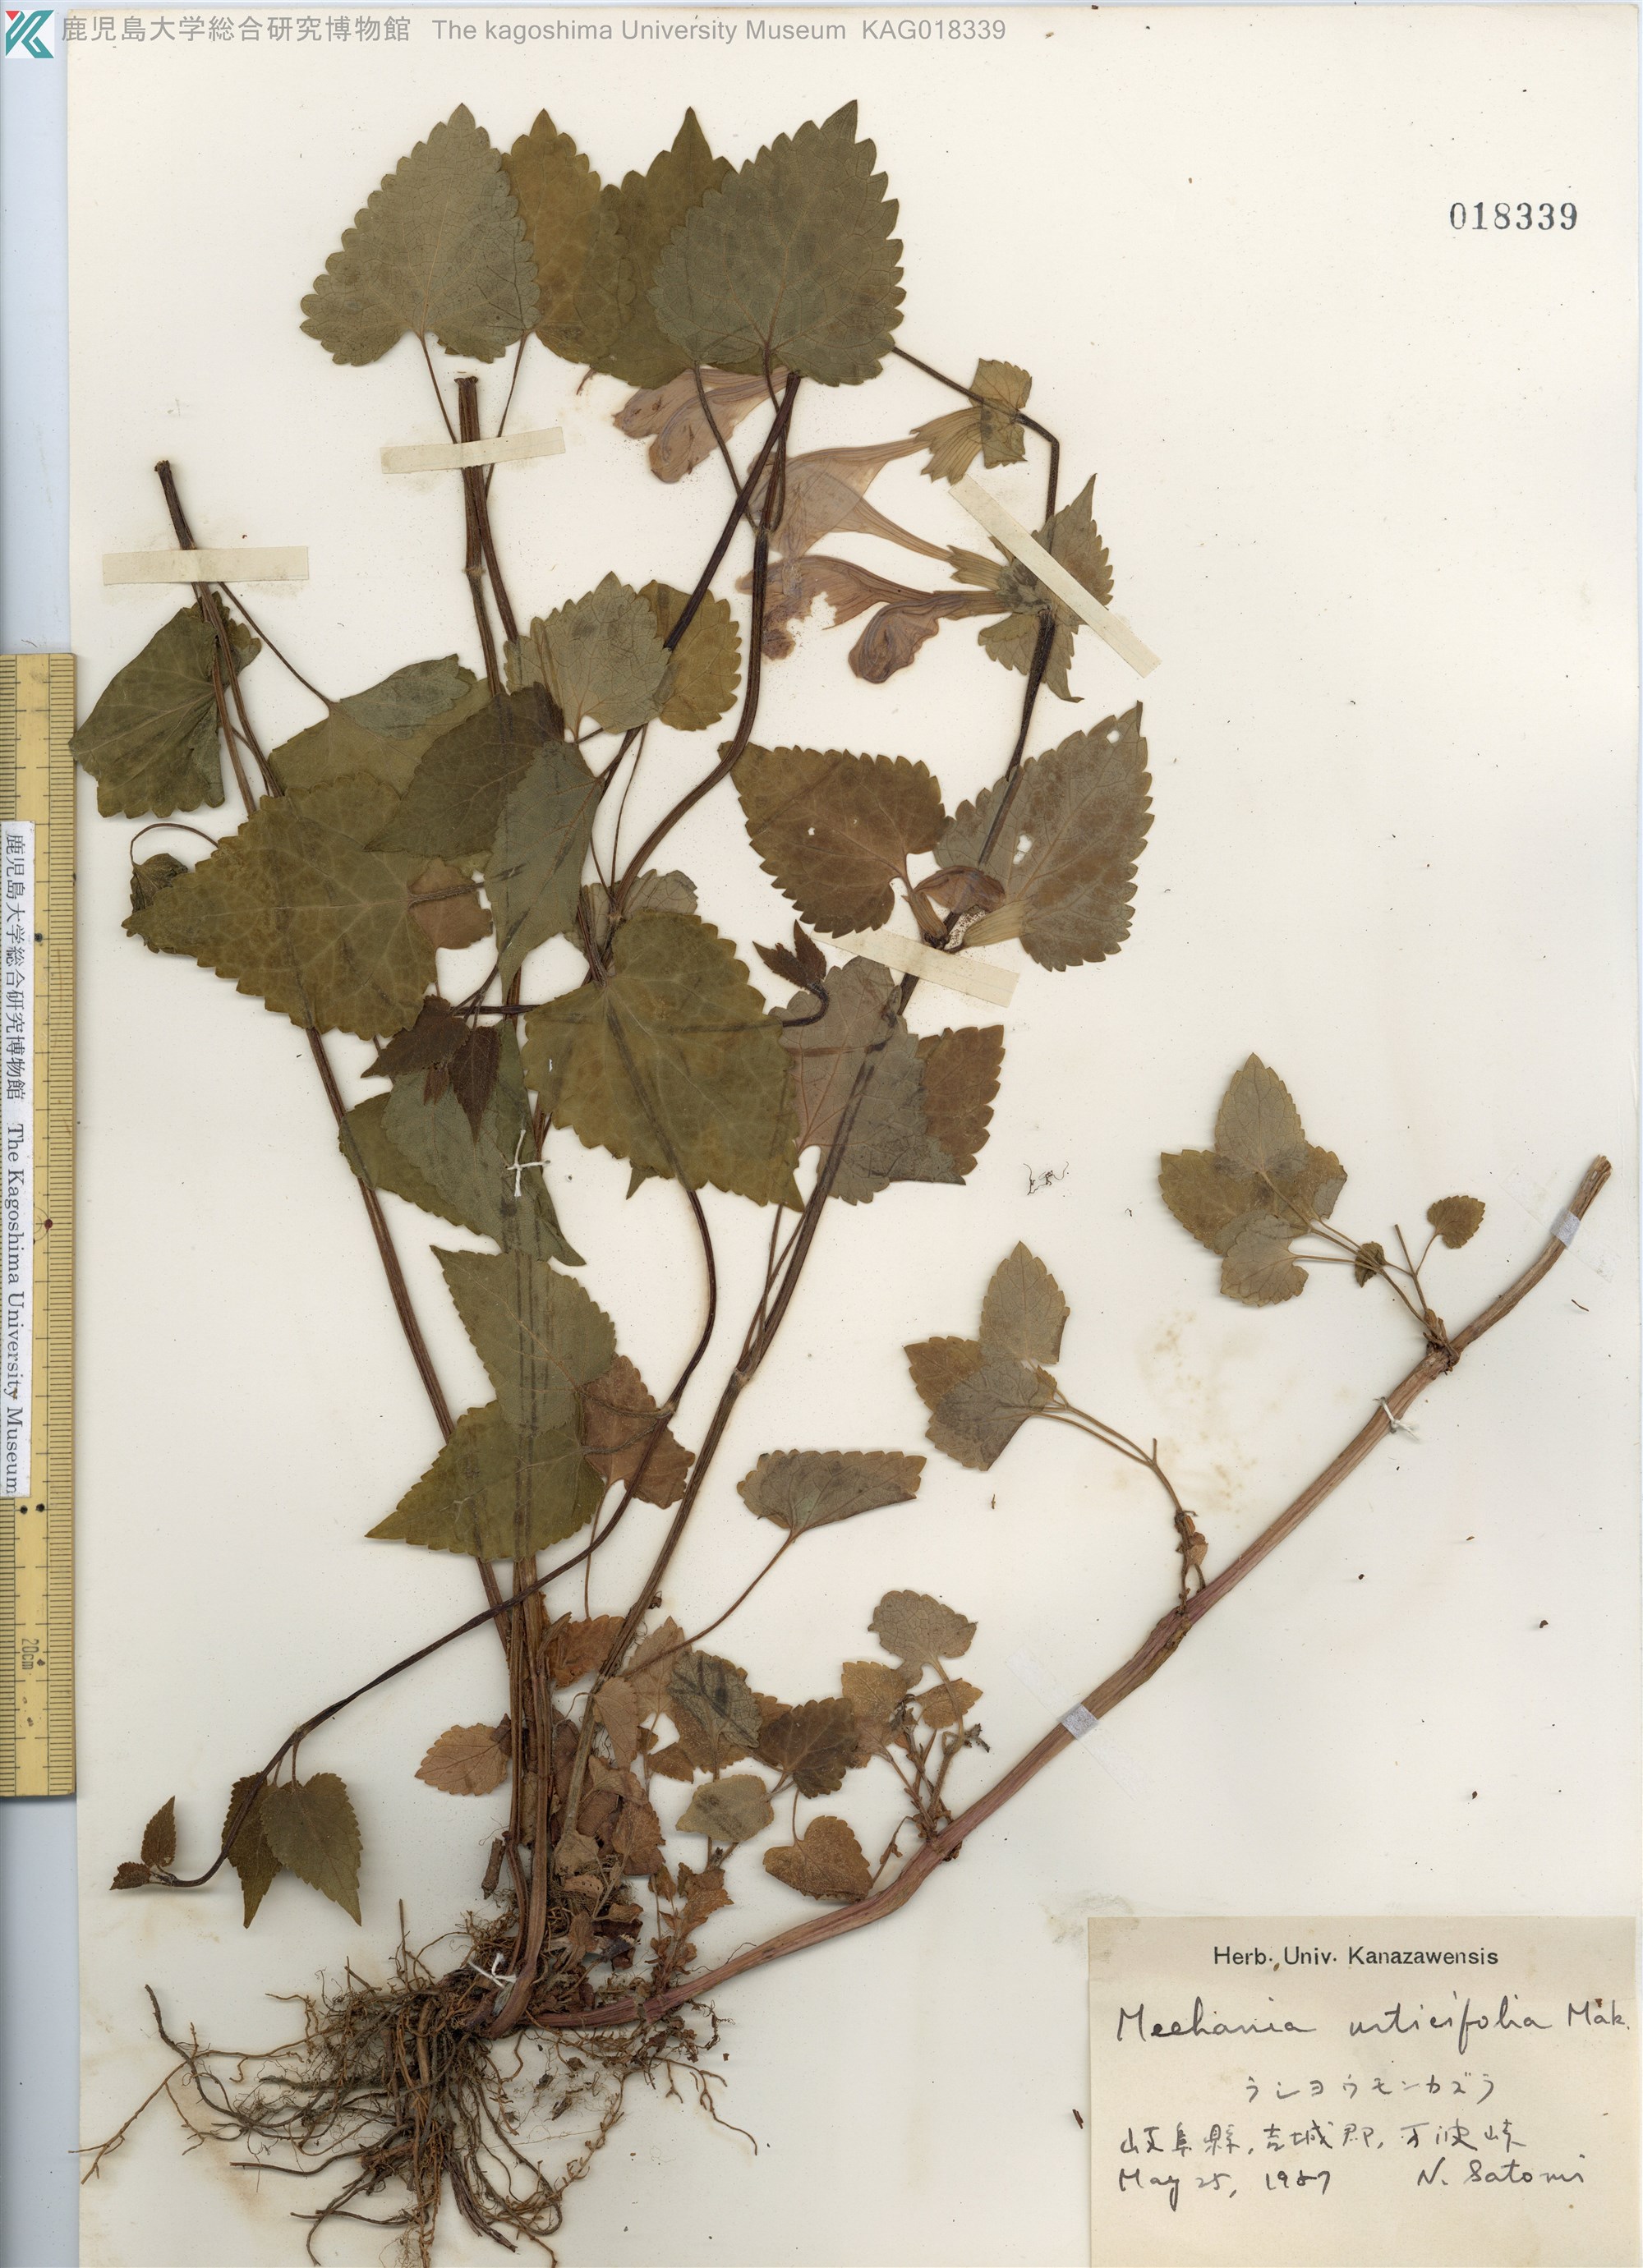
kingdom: Plantae
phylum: Tracheophyta
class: Magnoliopsida
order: Lamiales
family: Lamiaceae
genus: Meehania
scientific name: Meehania urticifolia
